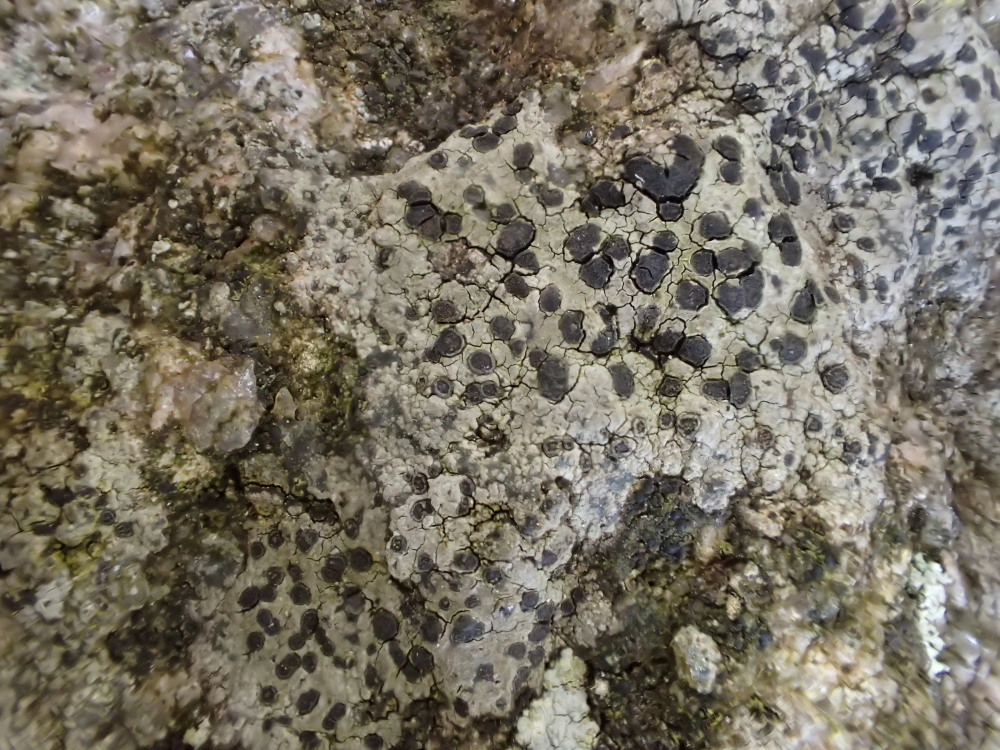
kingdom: Fungi
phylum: Ascomycota
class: Lecanoromycetes
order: Lecideales
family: Lecideaceae
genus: Porpidia
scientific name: Porpidia crustulata
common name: Concentric boulder lichen
